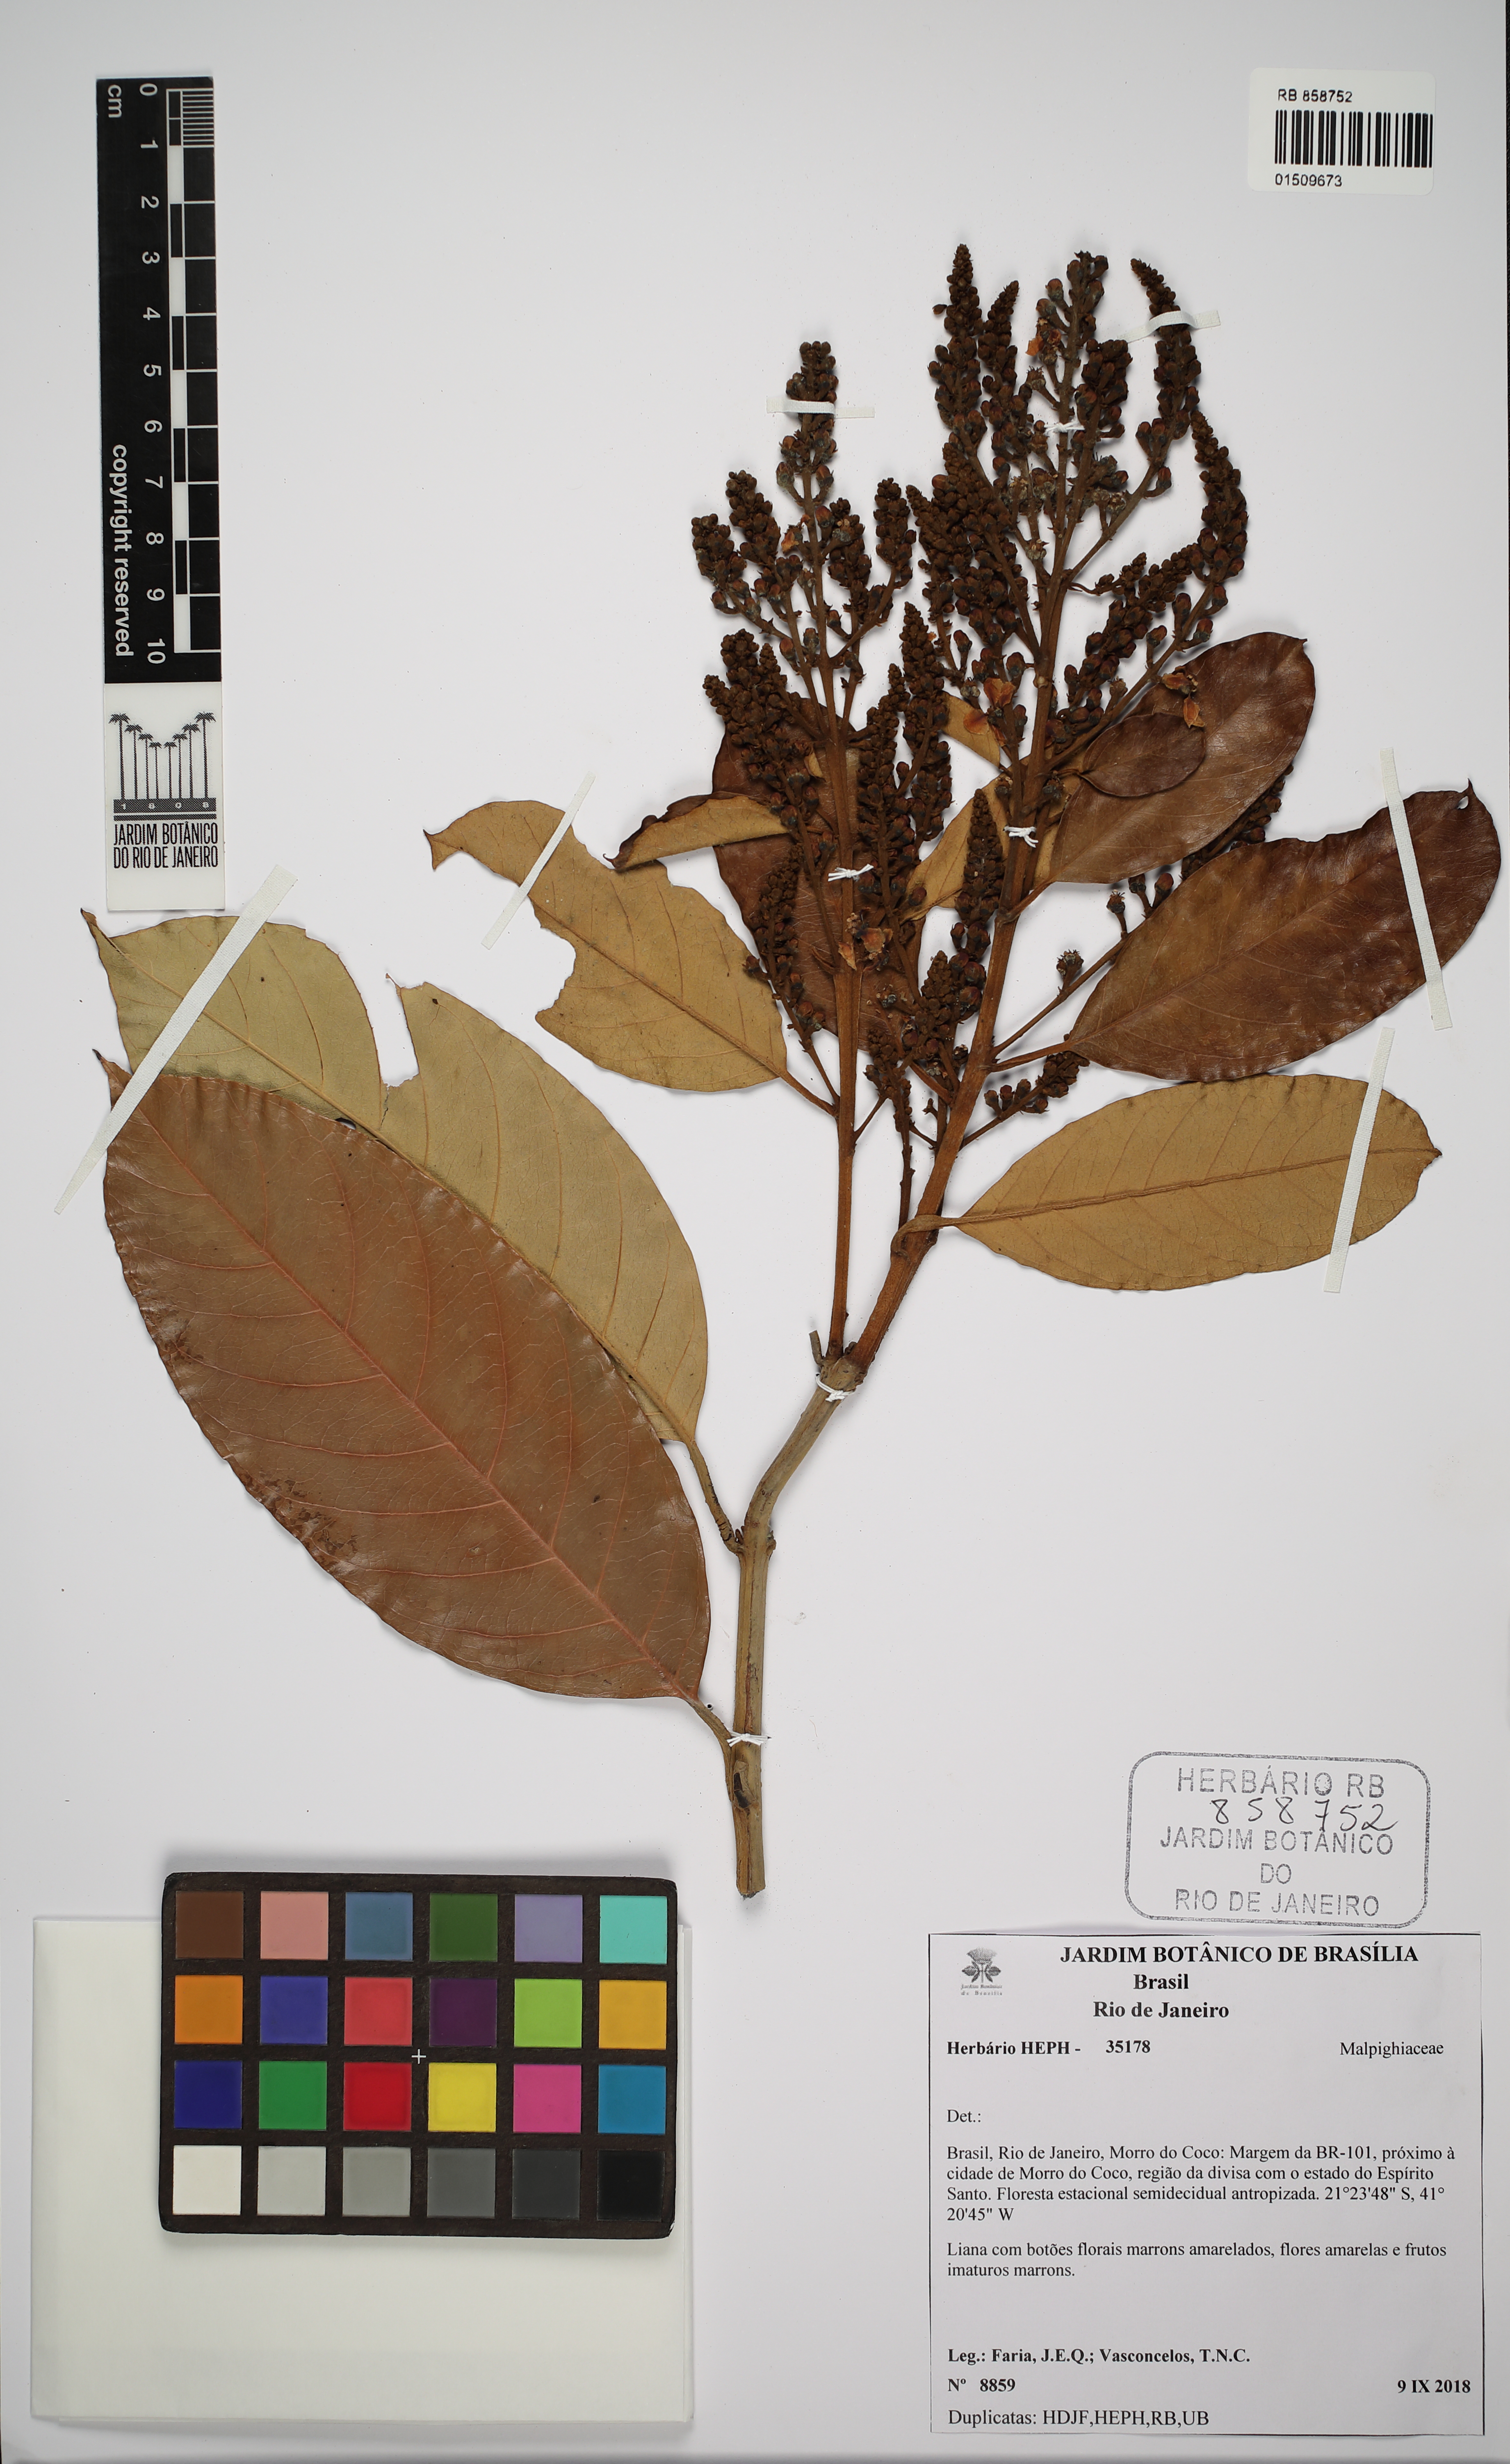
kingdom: Plantae
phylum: Tracheophyta
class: Magnoliopsida
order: Malpighiales
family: Malpighiaceae
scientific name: Malpighiaceae
